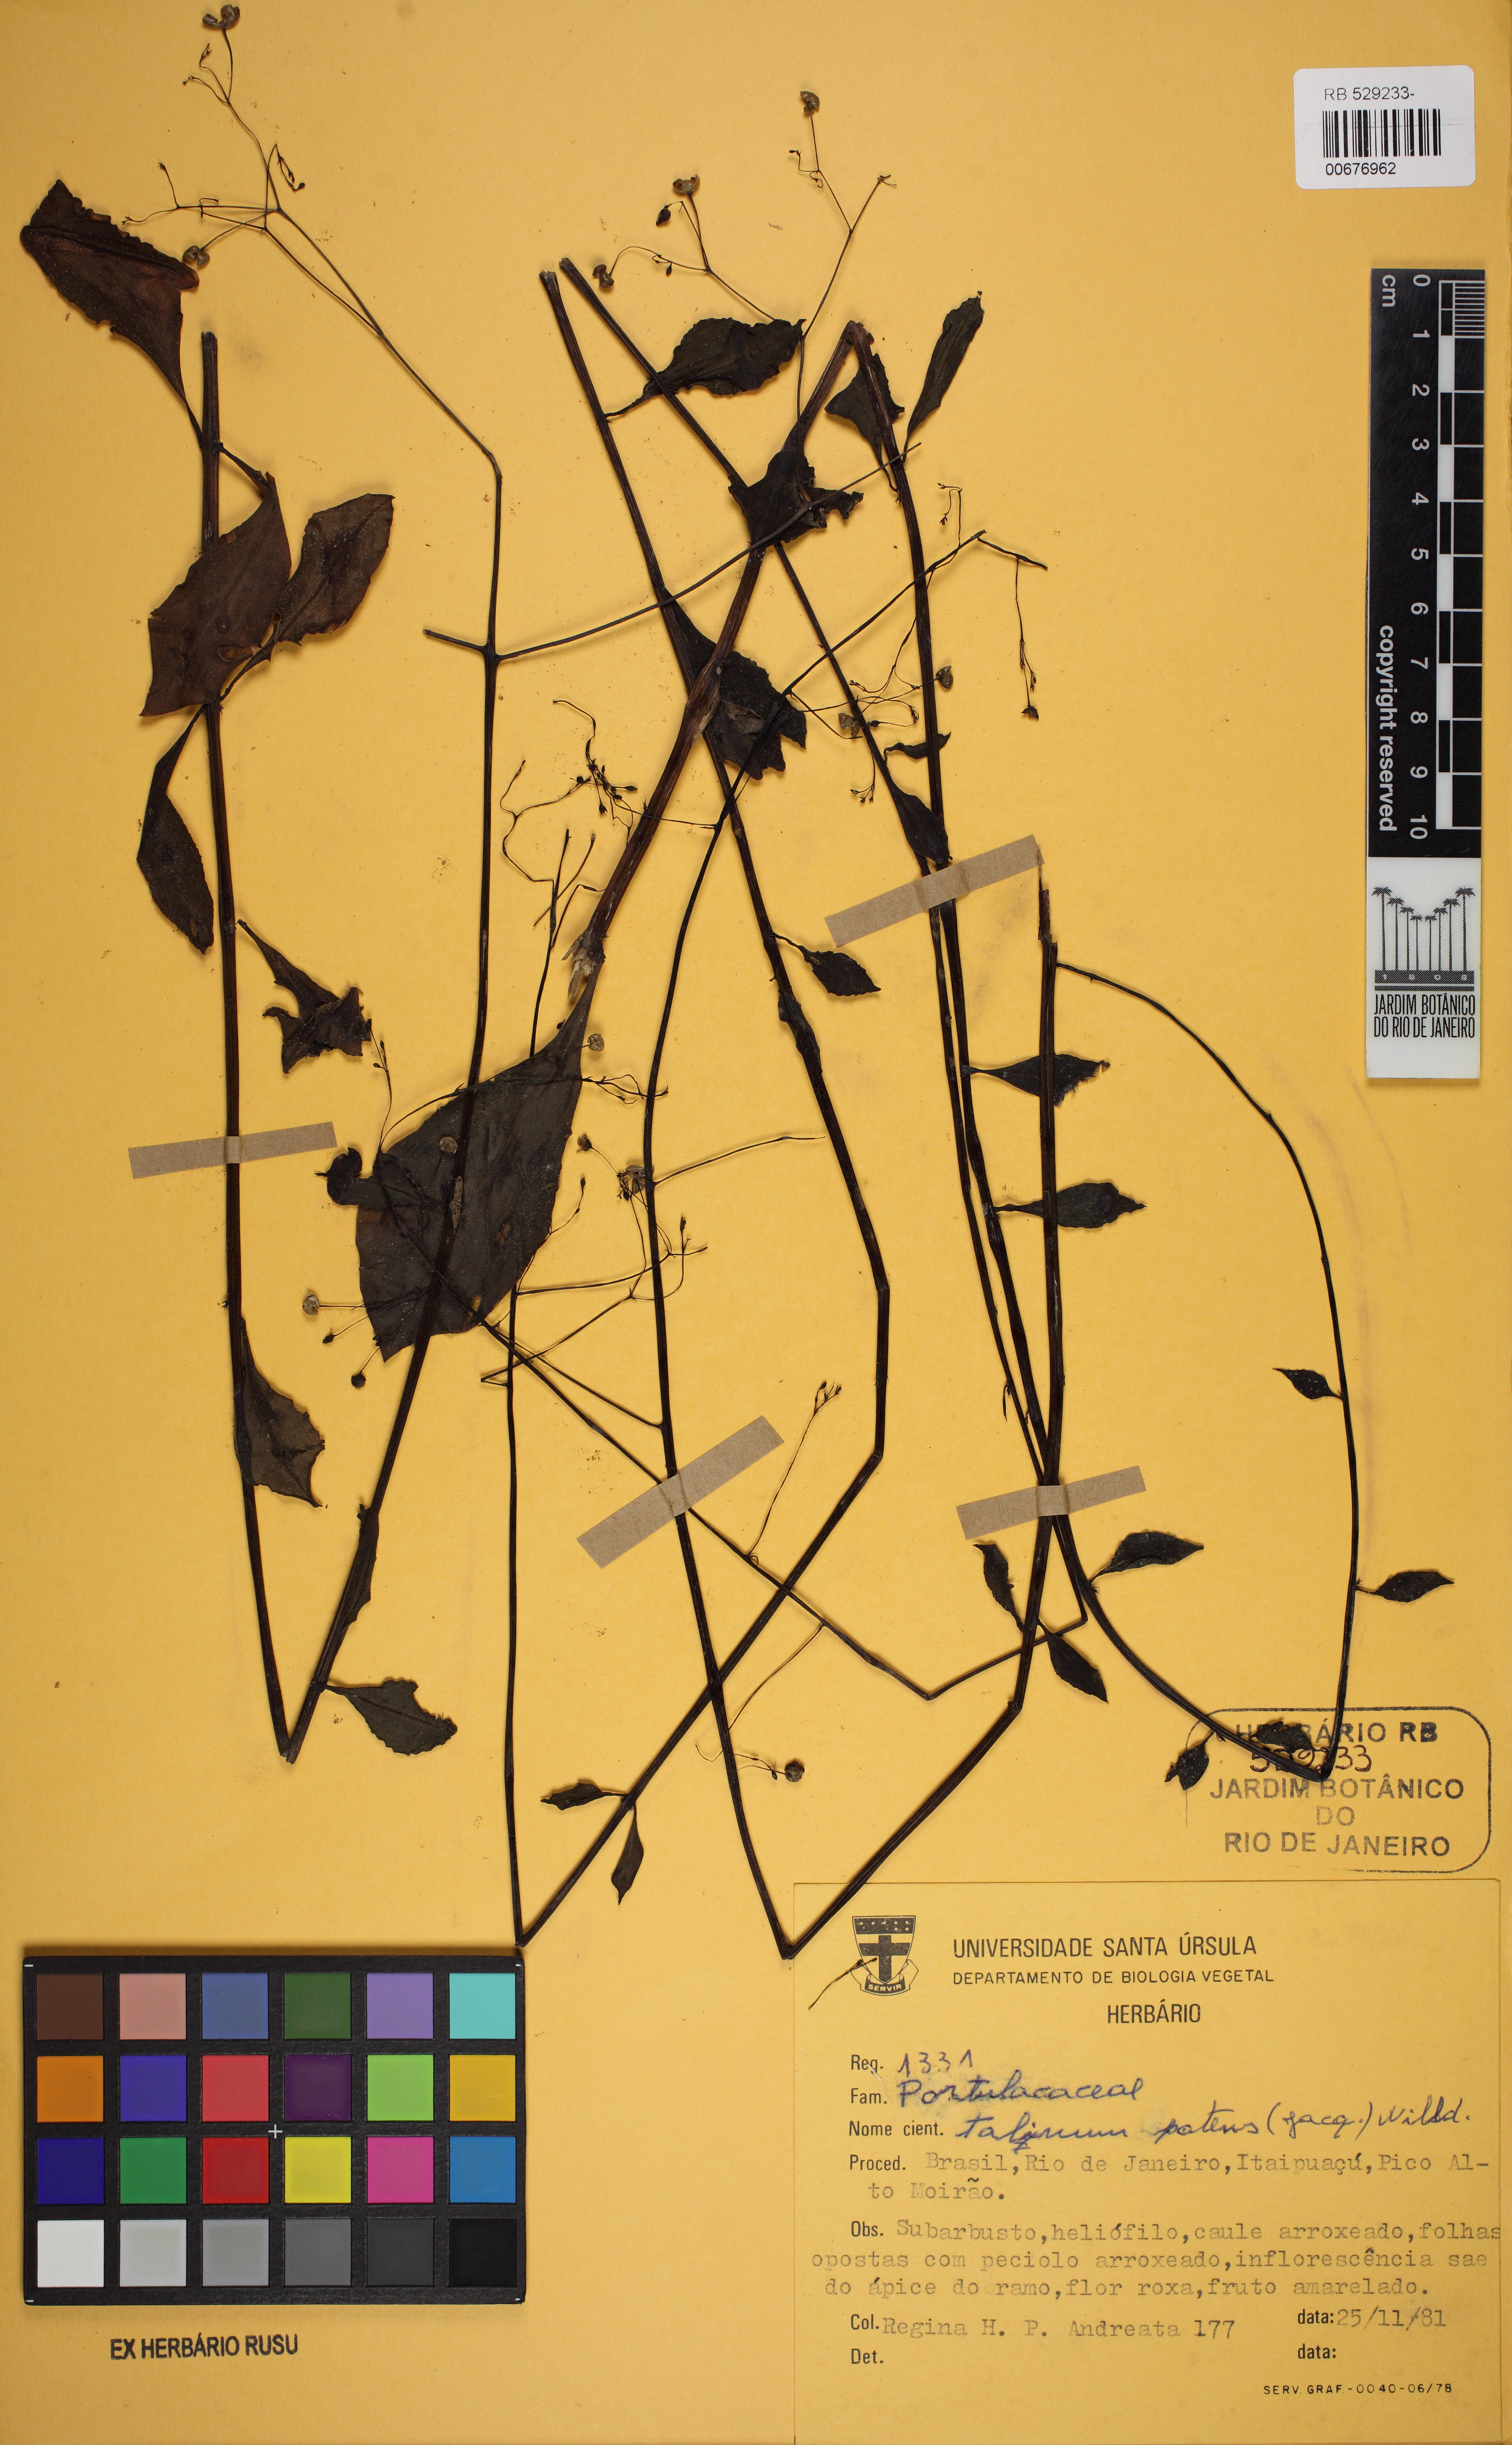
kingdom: Plantae
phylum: Tracheophyta
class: Magnoliopsida
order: Caryophyllales
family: Talinaceae
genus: Talinum
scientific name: Talinum paniculatum
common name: Jewels of opar
